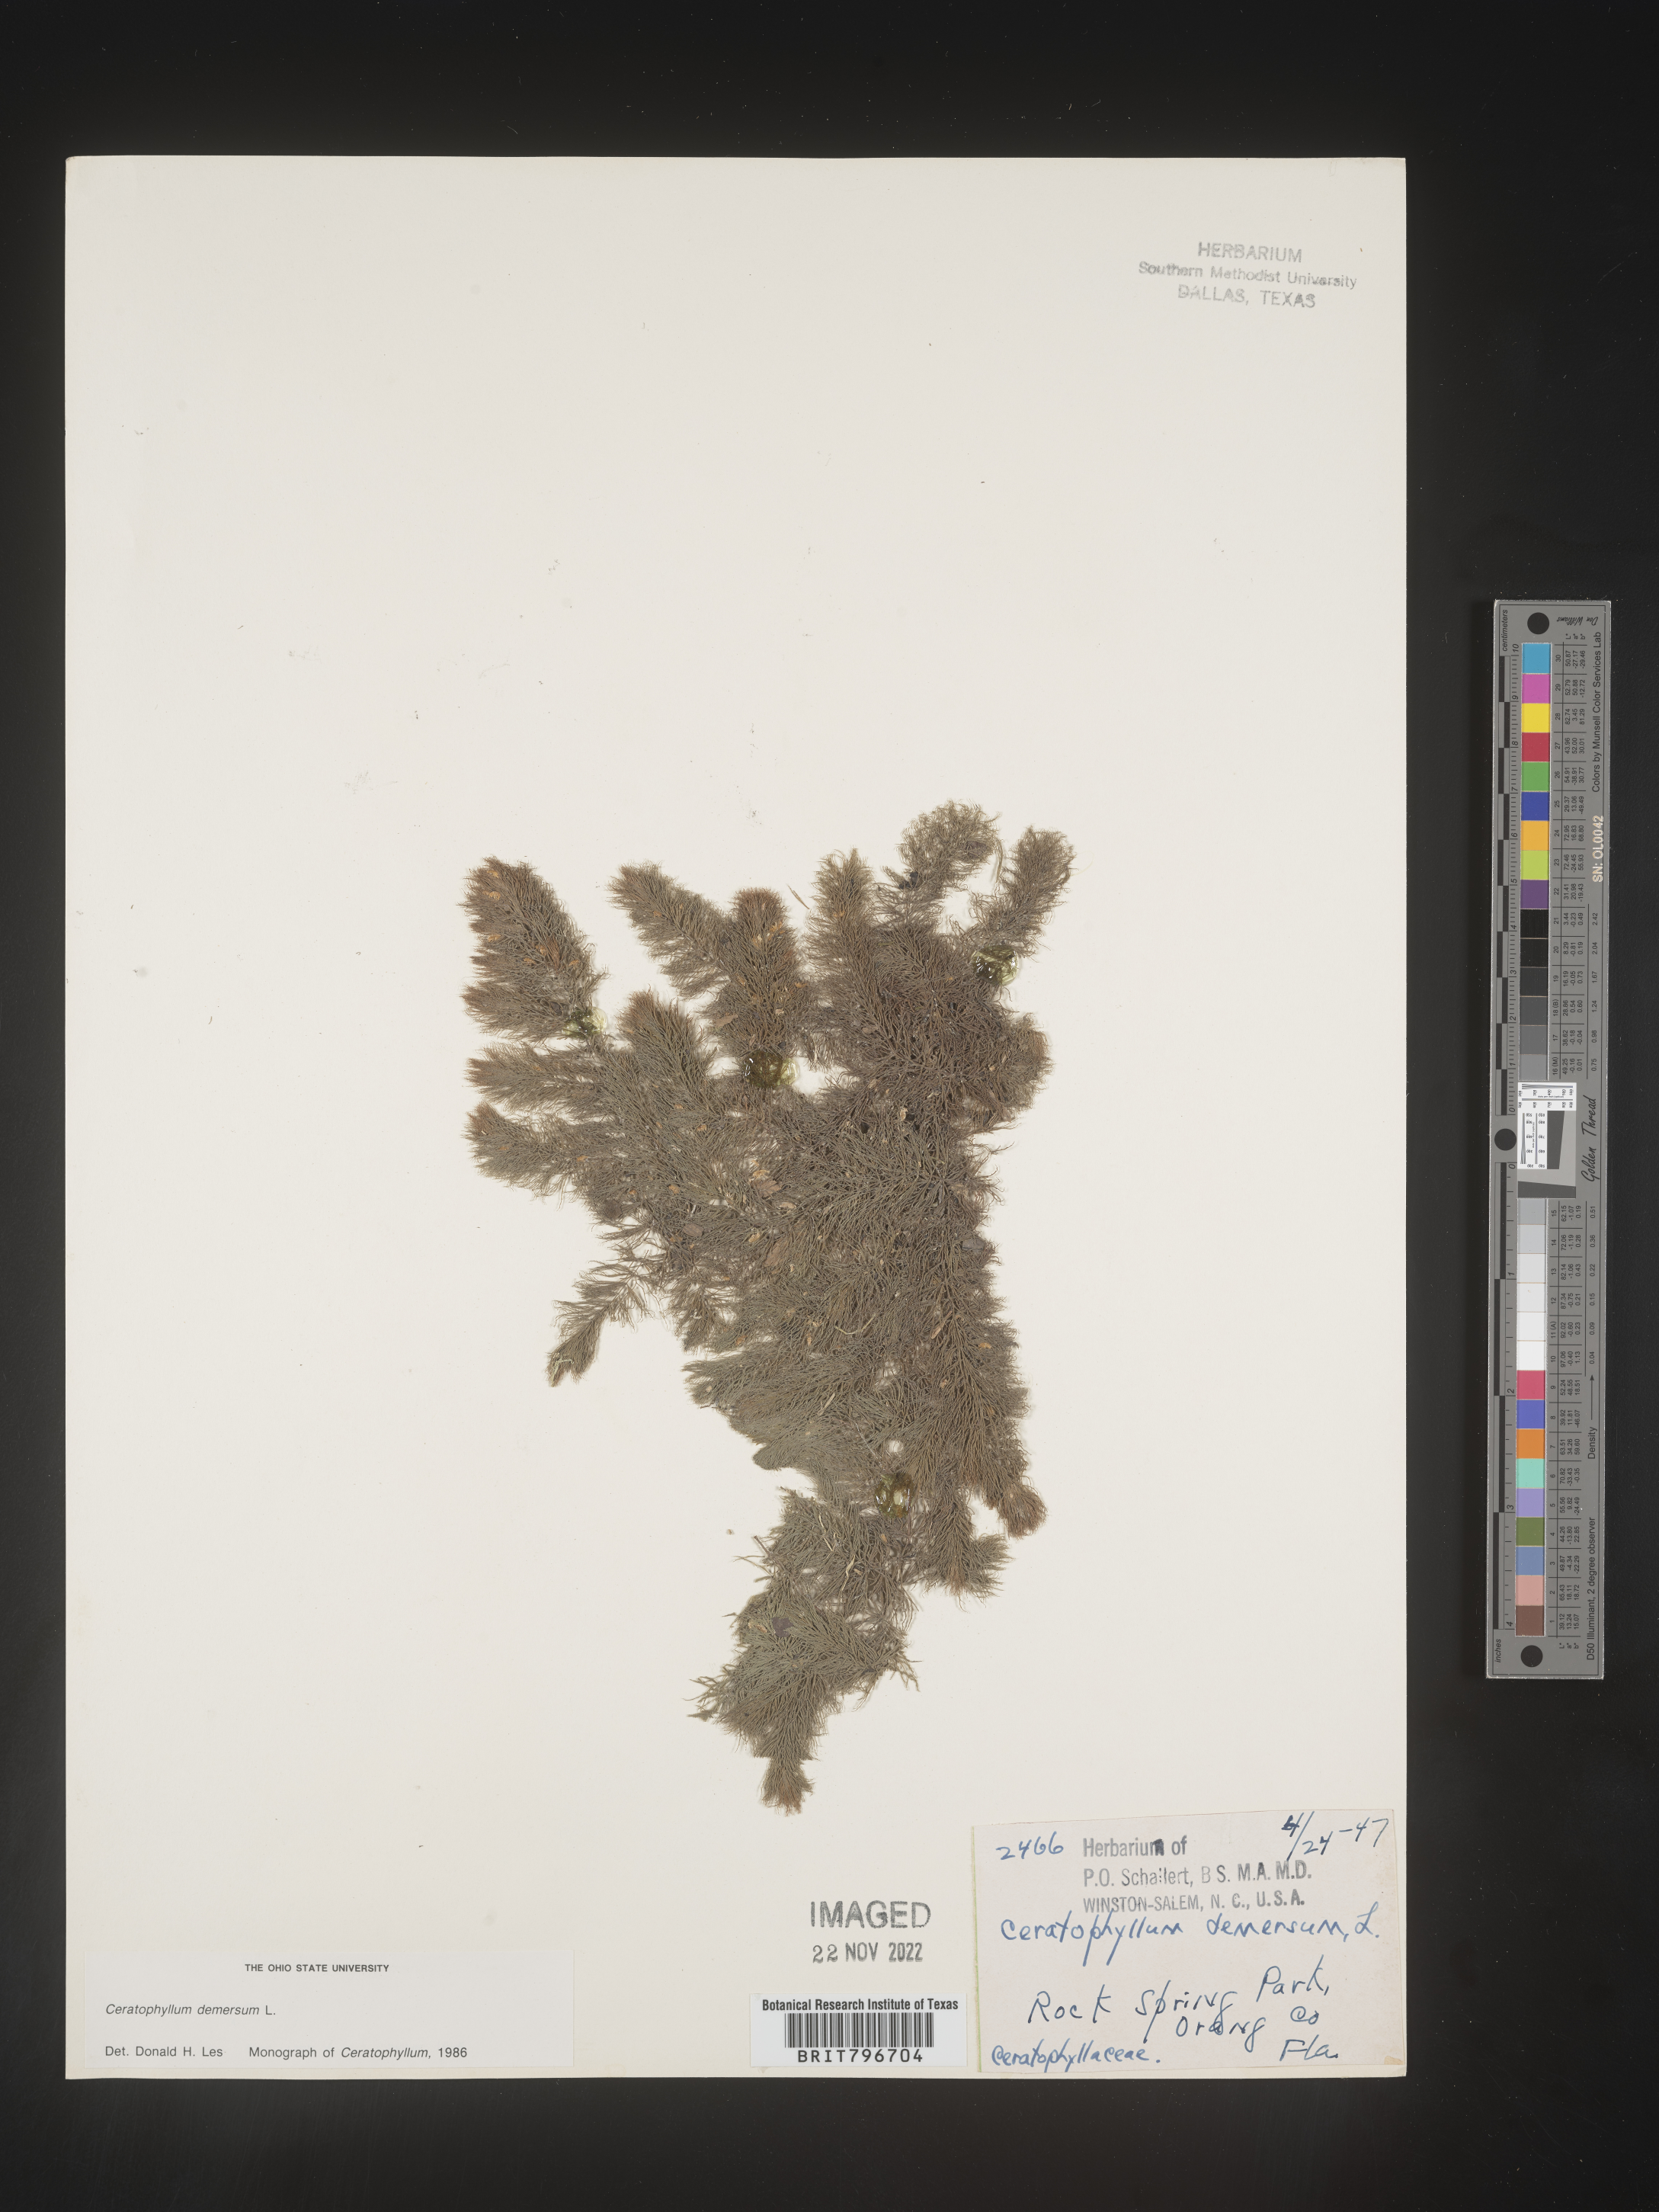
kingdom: Plantae
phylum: Tracheophyta
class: Magnoliopsida
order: Ceratophyllales
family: Ceratophyllaceae
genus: Ceratophyllum
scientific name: Ceratophyllum demersum
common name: Rigid hornwort
